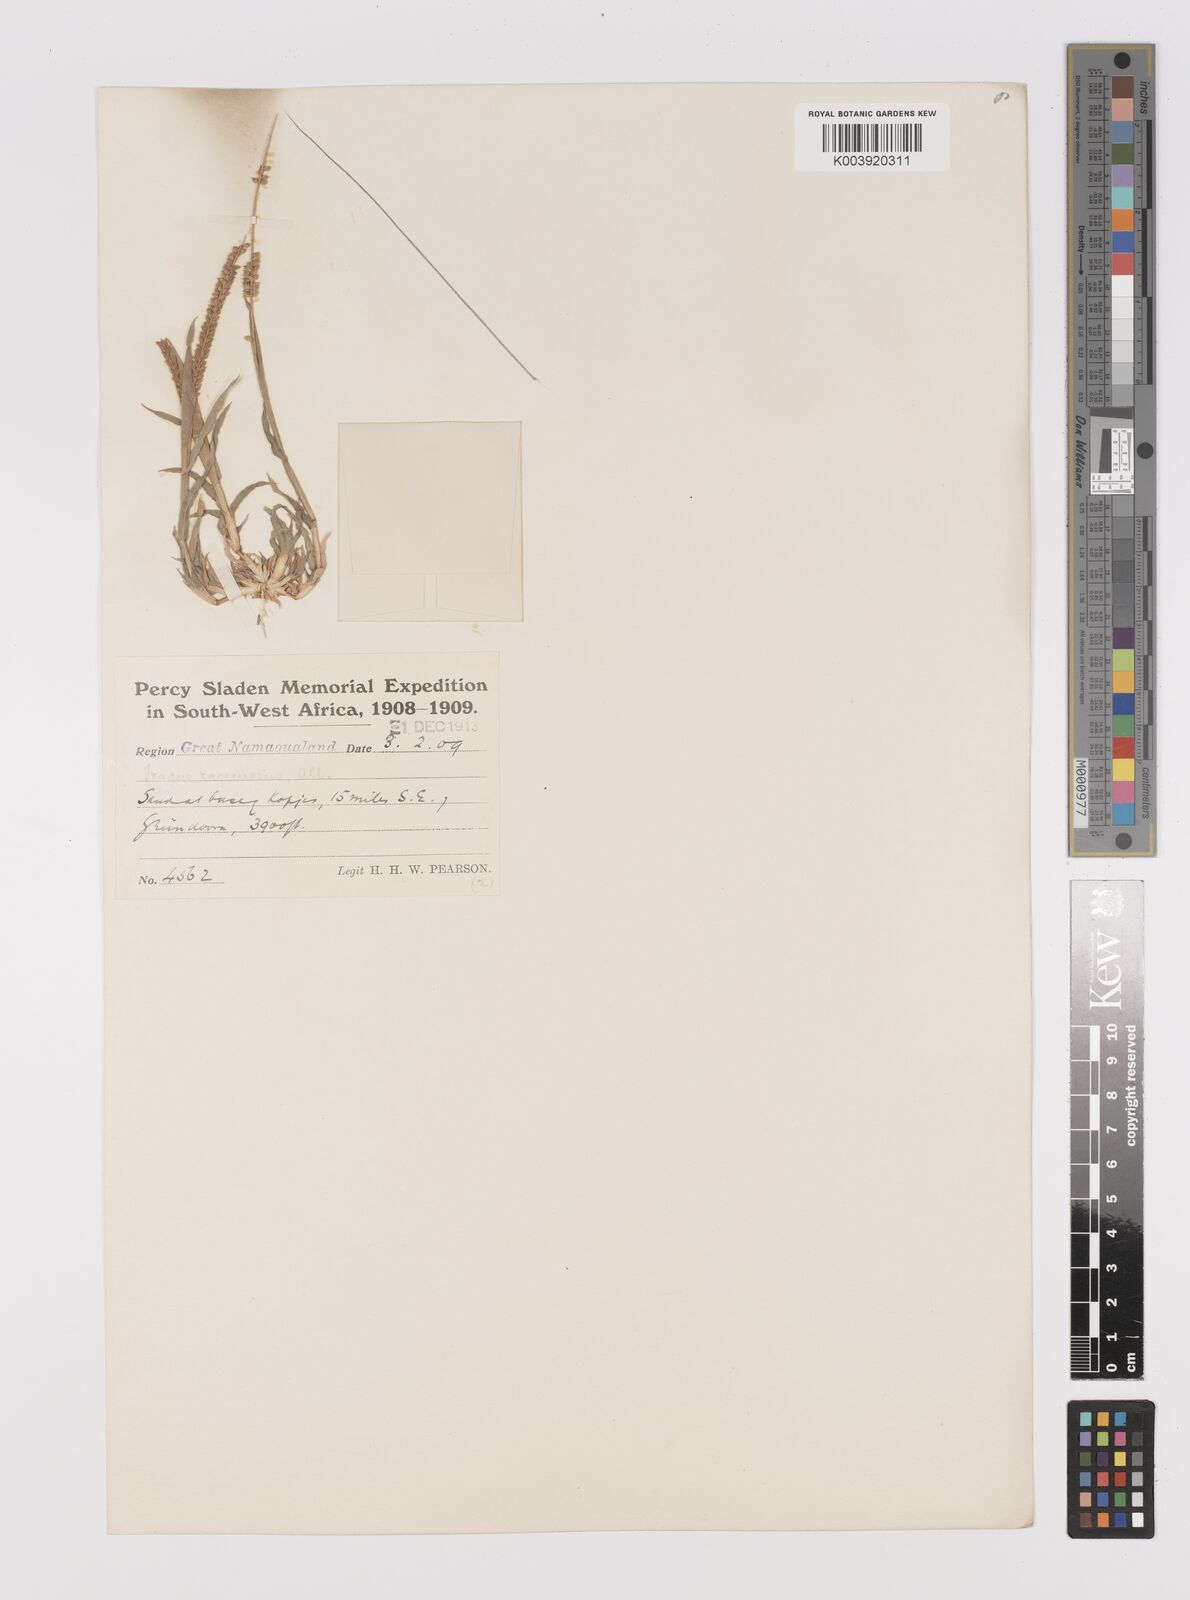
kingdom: Plantae
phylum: Tracheophyta
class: Liliopsida
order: Poales
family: Poaceae
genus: Tragus
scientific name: Tragus berteronianus
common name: African bur-grass
